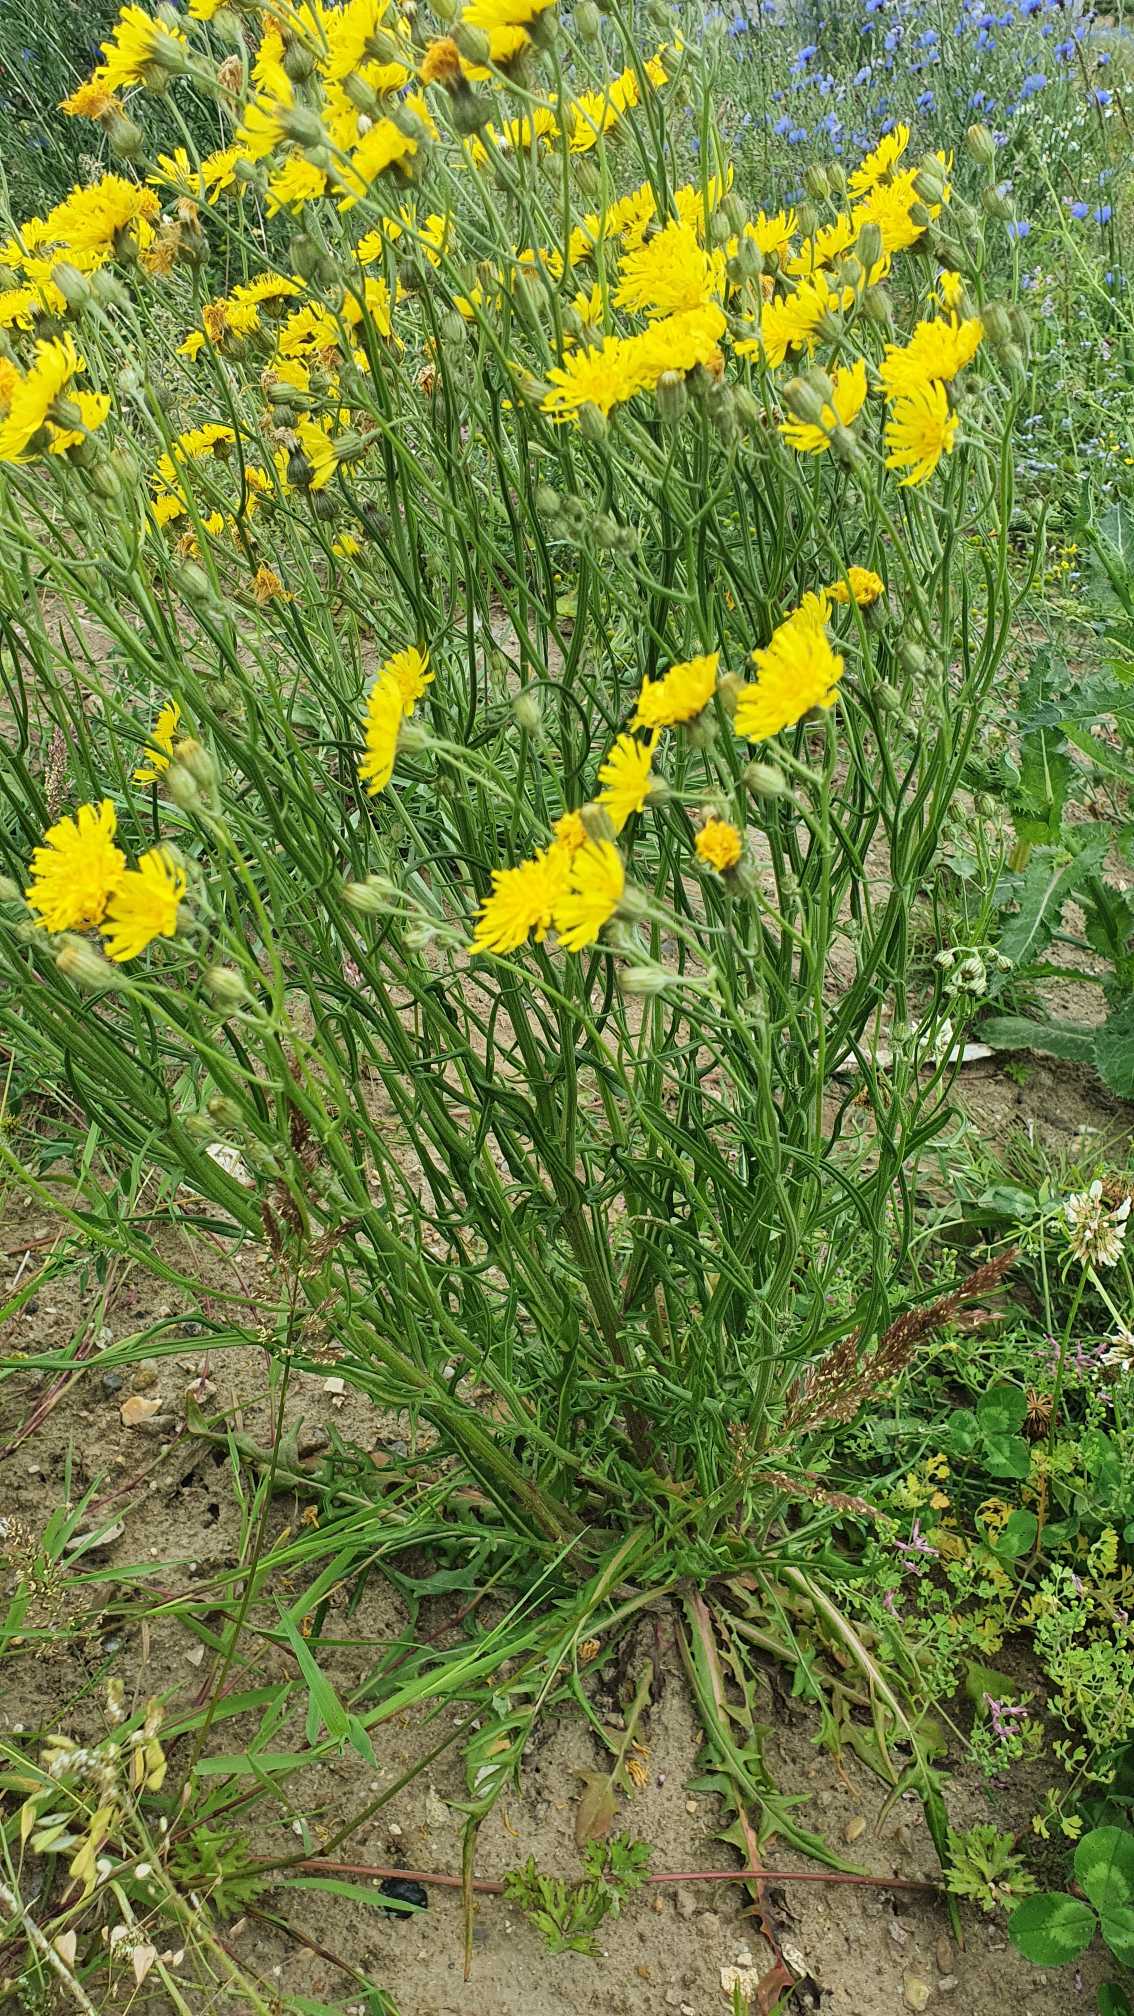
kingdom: Plantae
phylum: Tracheophyta
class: Magnoliopsida
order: Asterales
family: Asteraceae
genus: Crepis
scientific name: Crepis tectorum
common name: Tag-høgeskæg
